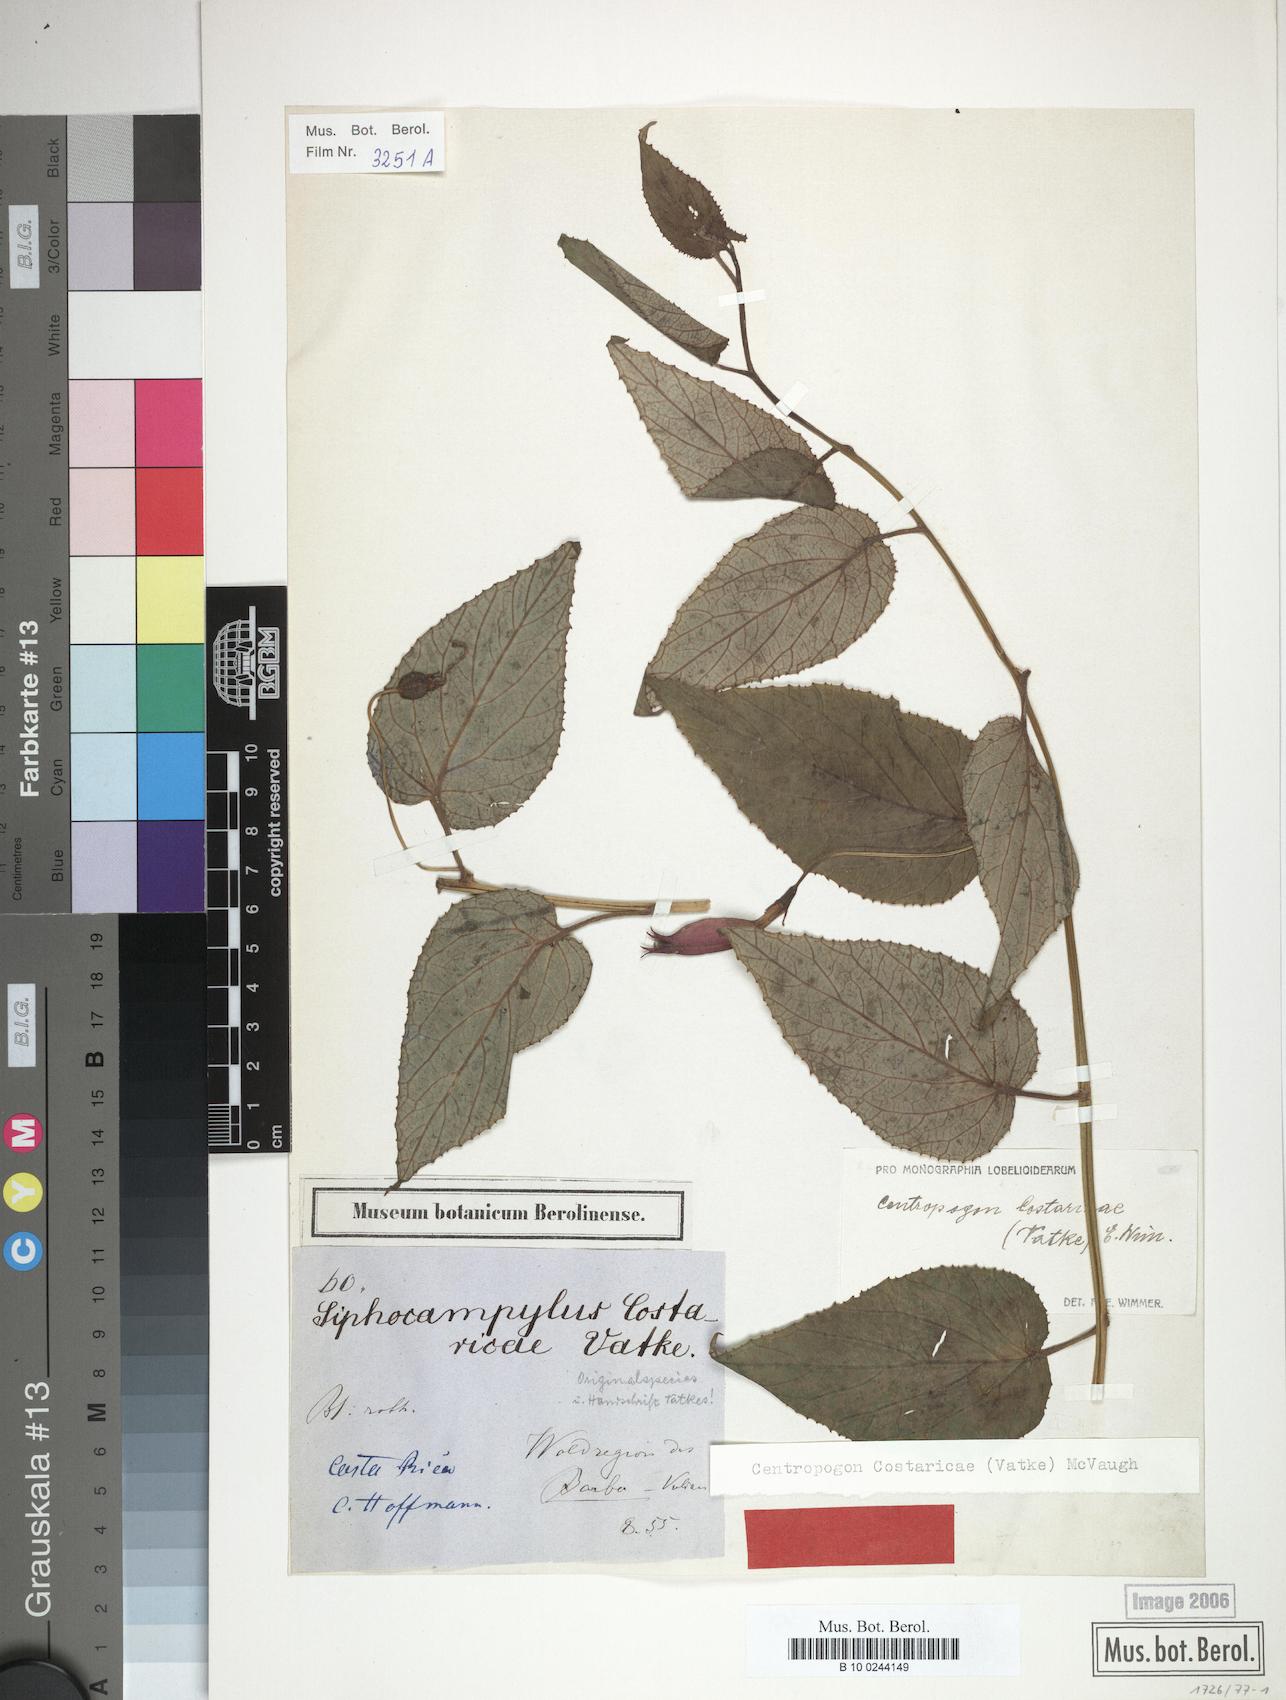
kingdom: Plantae
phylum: Tracheophyta
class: Magnoliopsida
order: Asterales
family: Campanulaceae
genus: Centropogon
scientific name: Centropogon costaricae
